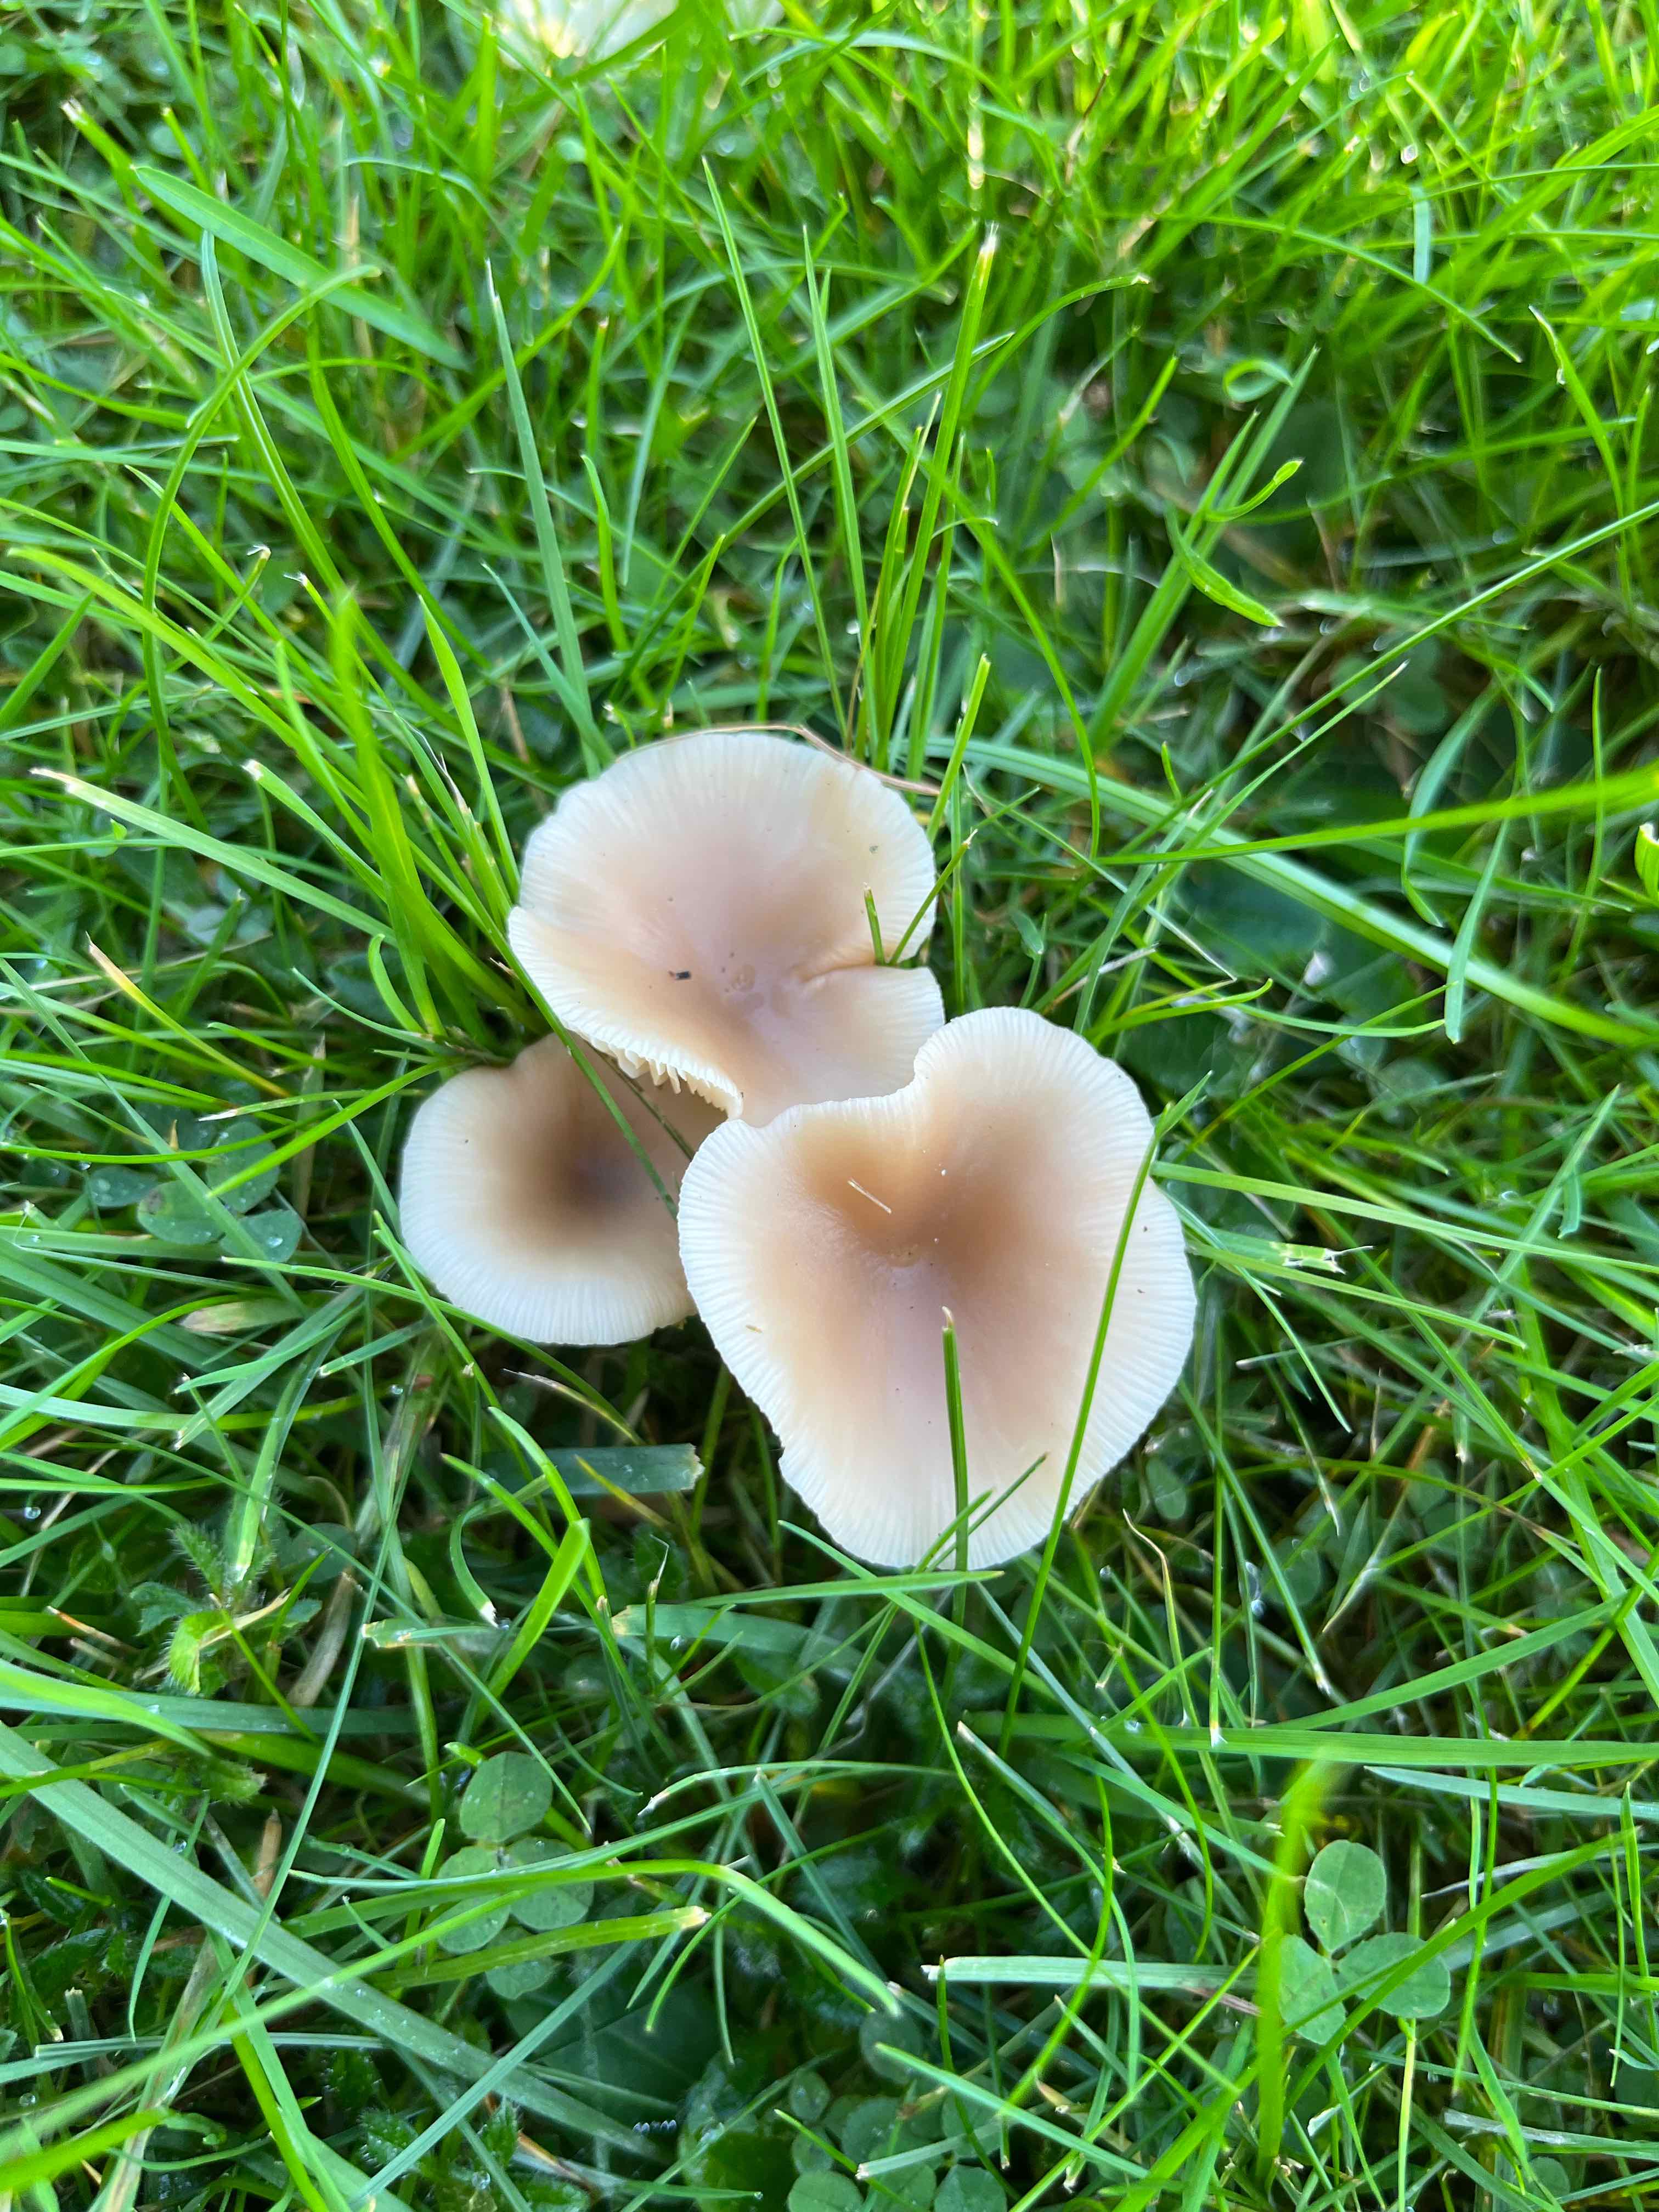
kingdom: Fungi
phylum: Basidiomycota
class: Agaricomycetes
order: Agaricales
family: Tricholomataceae
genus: Clitocybe
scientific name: Clitocybe fragrans
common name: vellugtende tragthat
